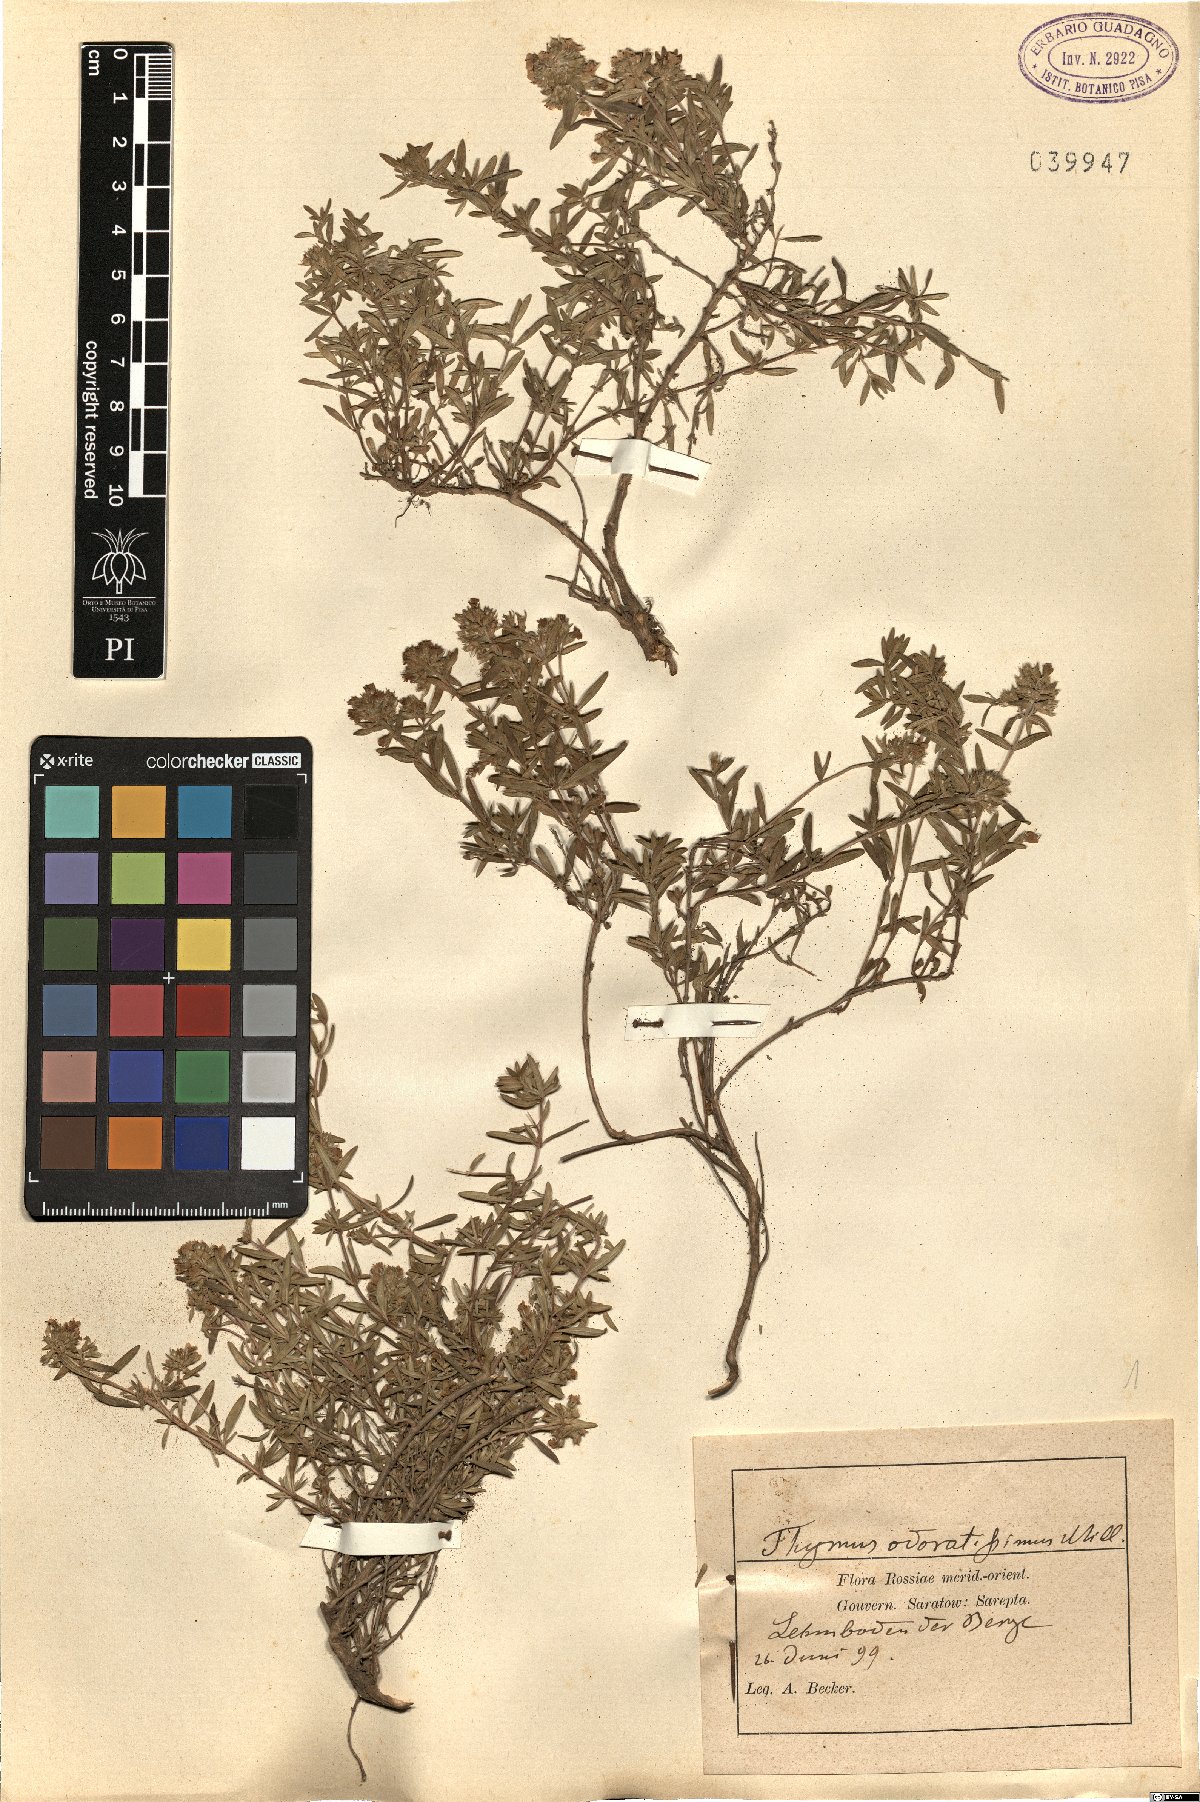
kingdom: Plantae
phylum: Tracheophyta
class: Magnoliopsida
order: Lamiales
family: Lamiaceae
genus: Thymus
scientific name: Thymus odoratissimus
